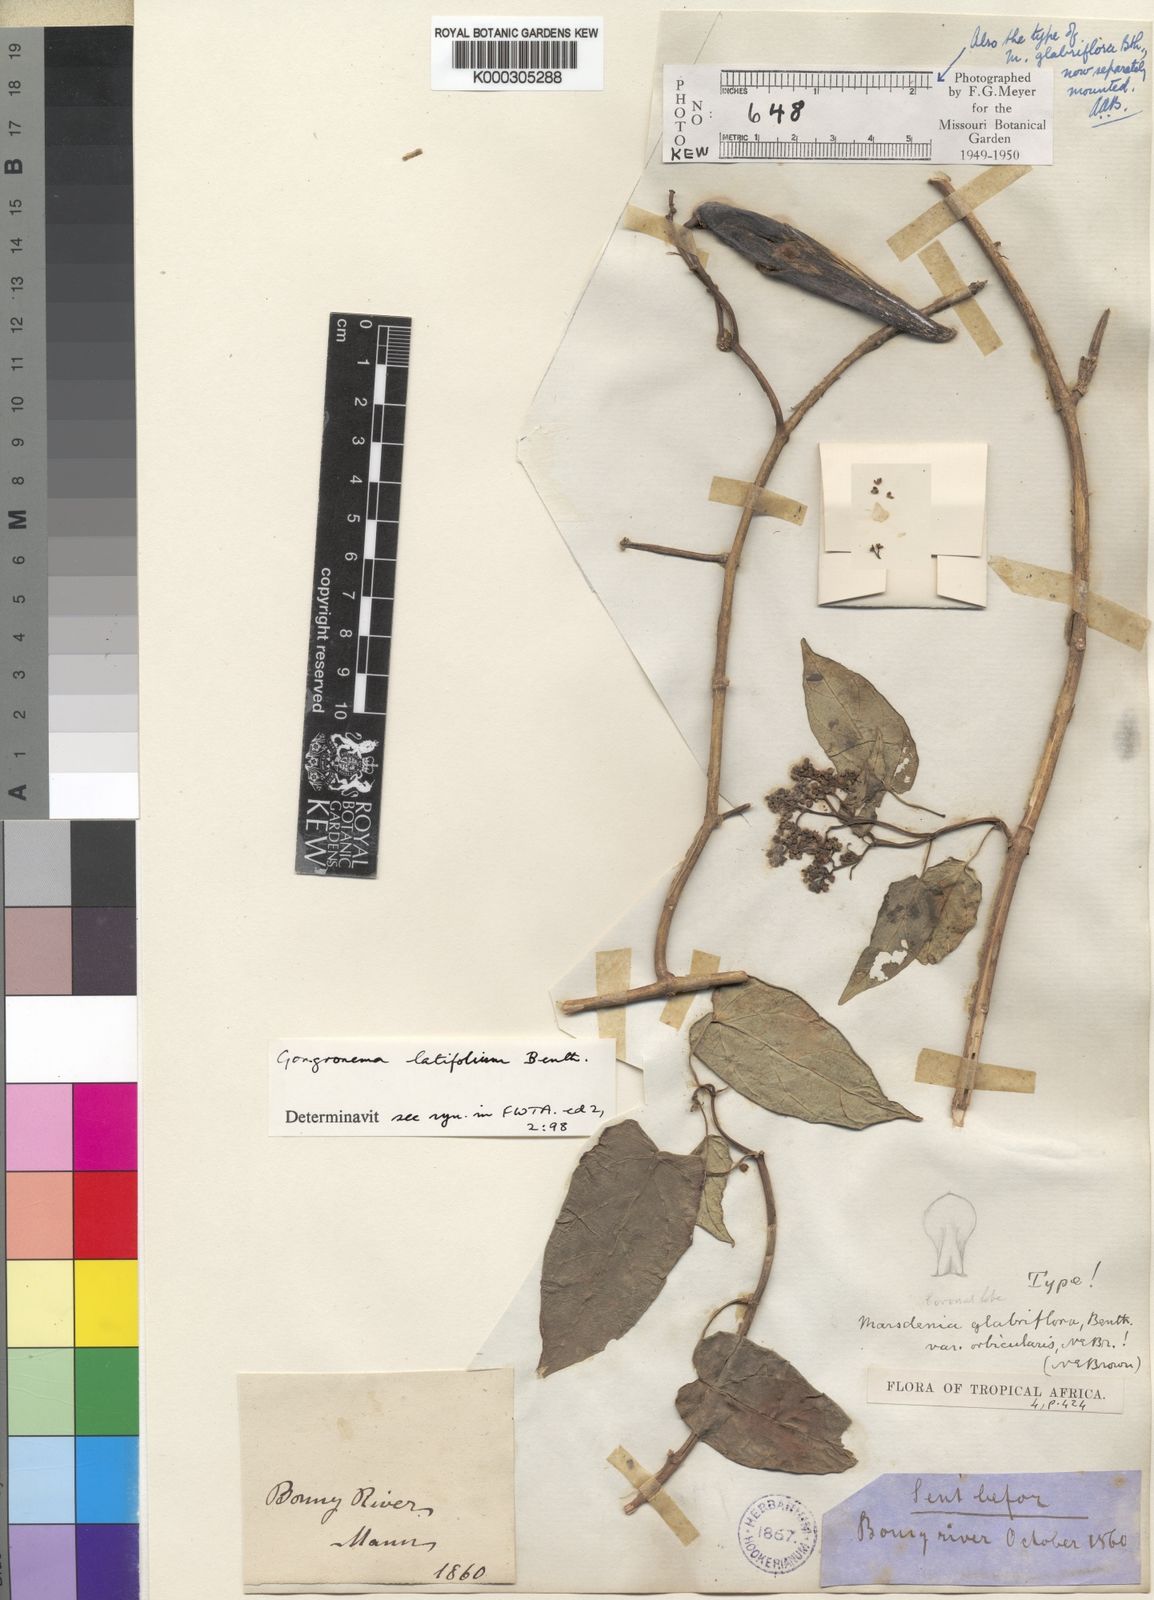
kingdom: Plantae
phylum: Tracheophyta
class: Magnoliopsida
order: Gentianales
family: Apocynaceae
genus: Gongronemopsis
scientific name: Gongronemopsis latifolia
